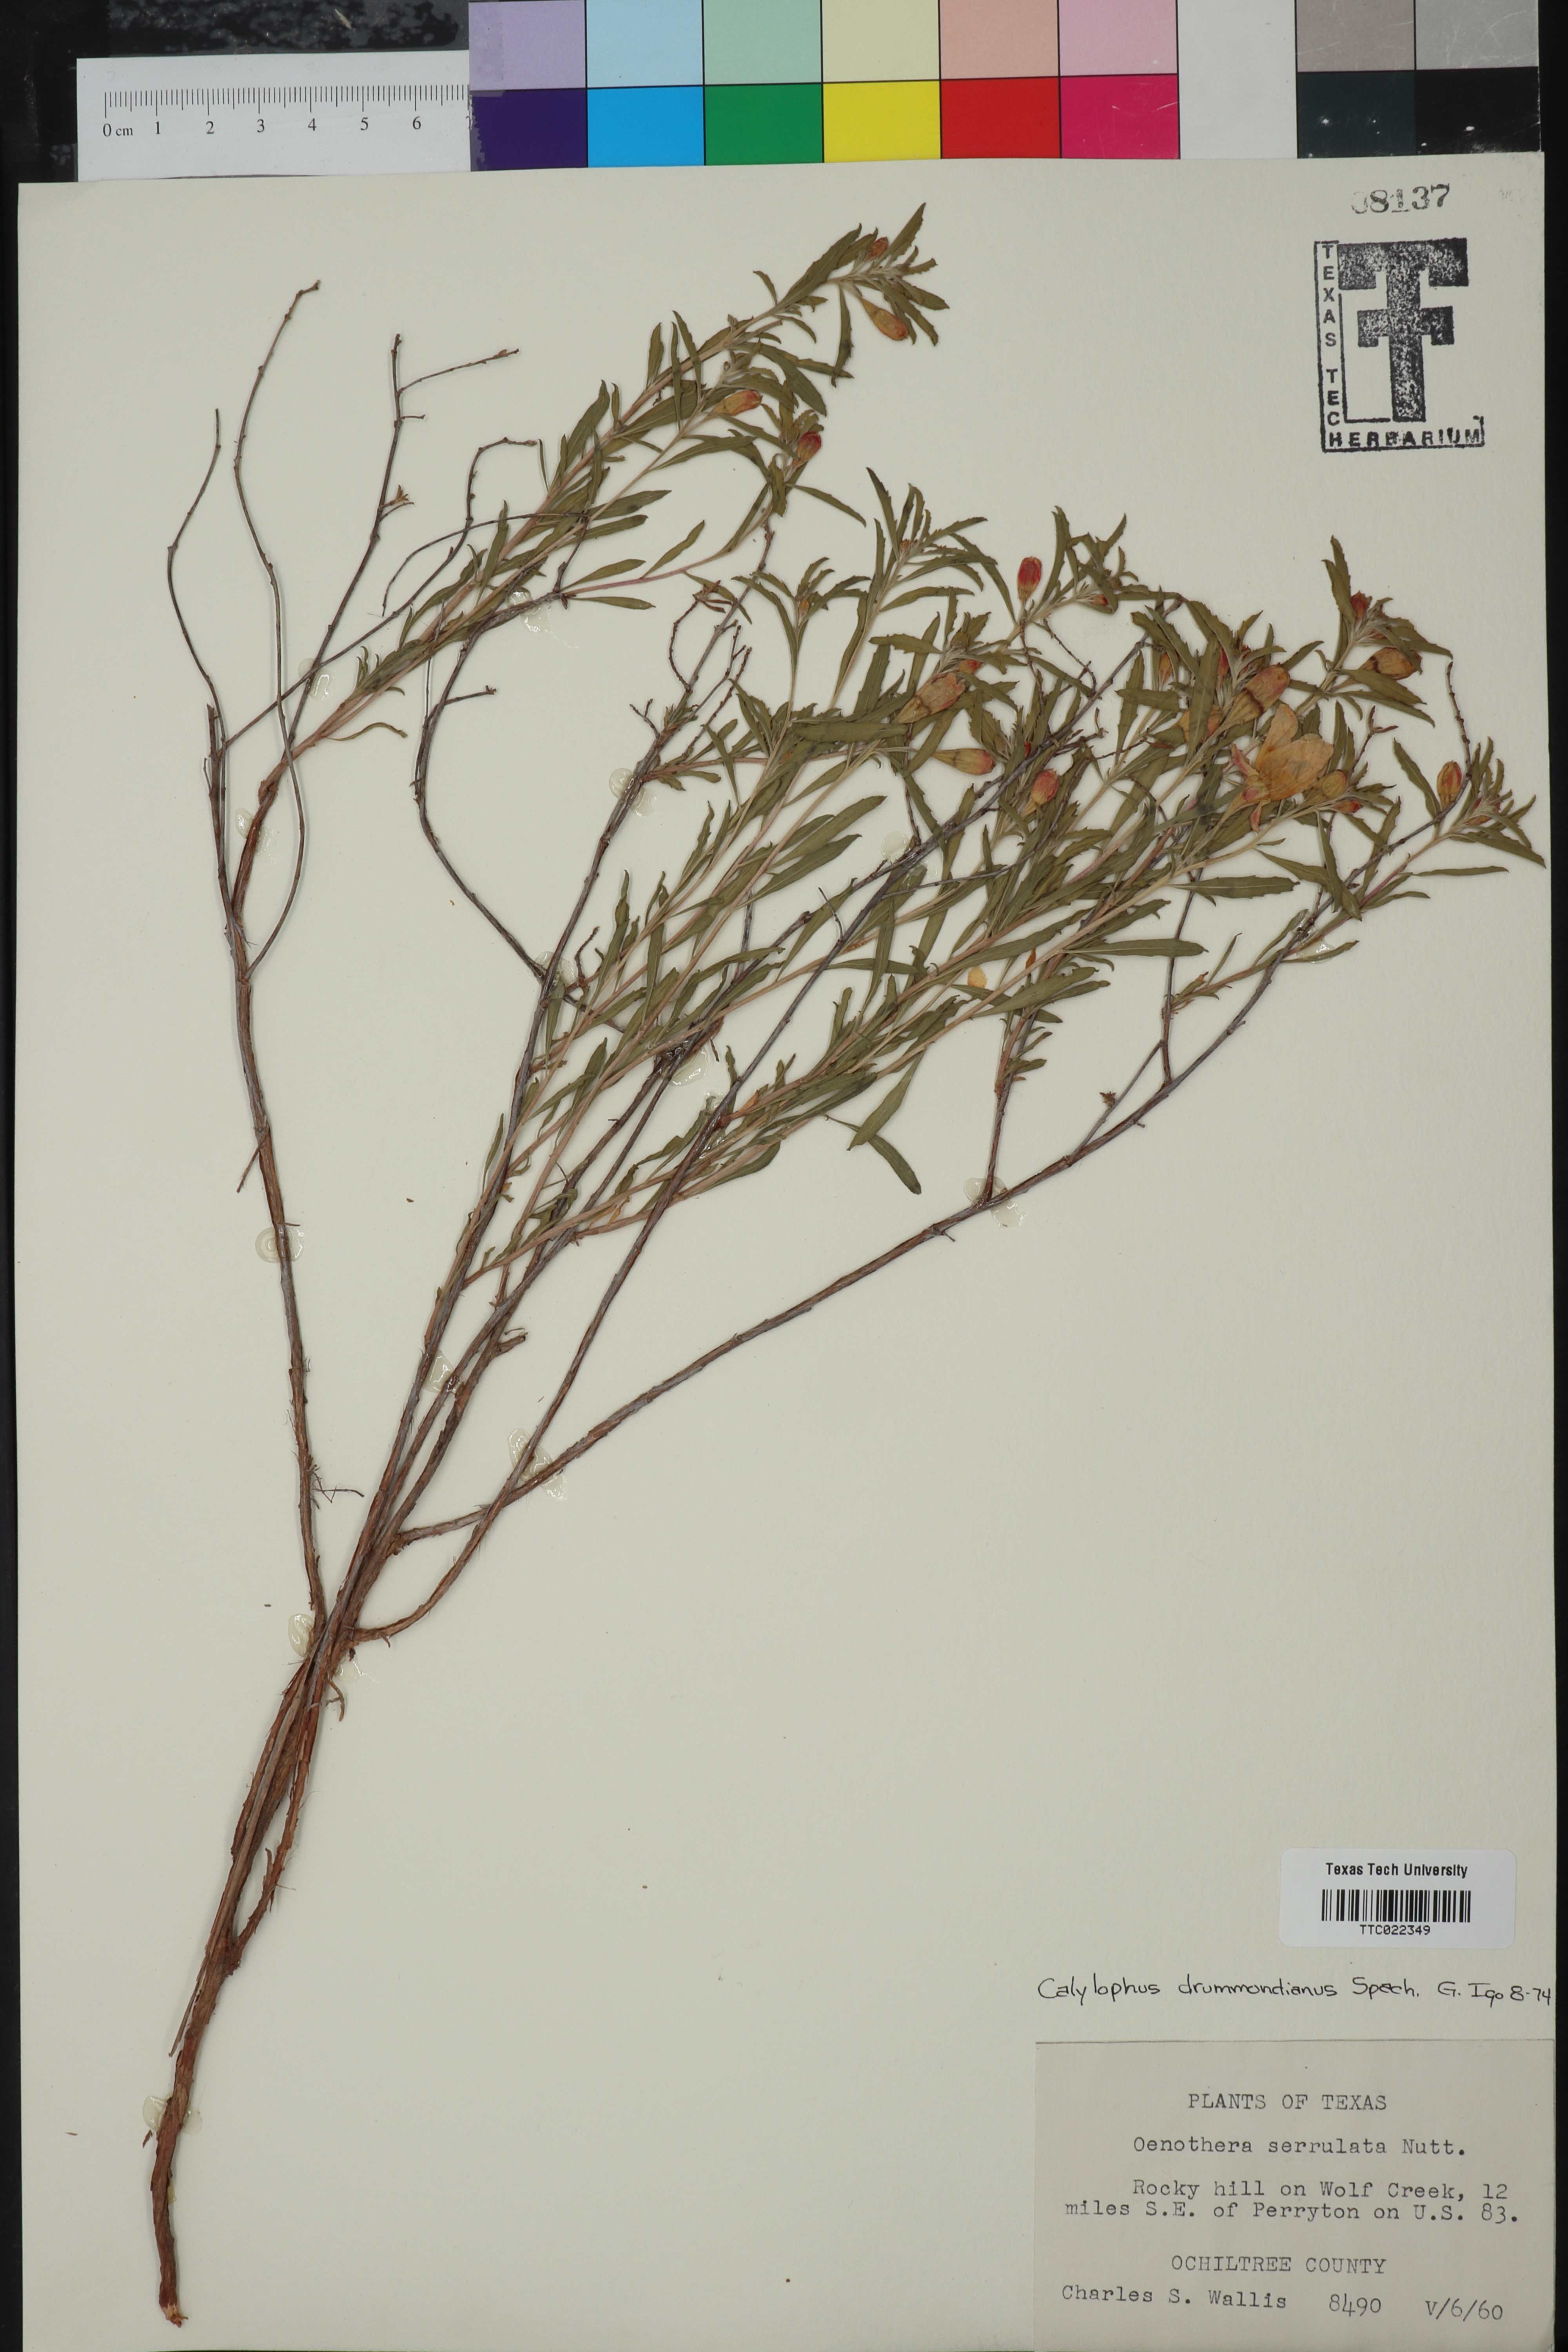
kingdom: Plantae
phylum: Tracheophyta
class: Magnoliopsida
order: Myrtales
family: Onagraceae
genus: Oenothera
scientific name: Oenothera serrulata
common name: Half-shrub calylophus
